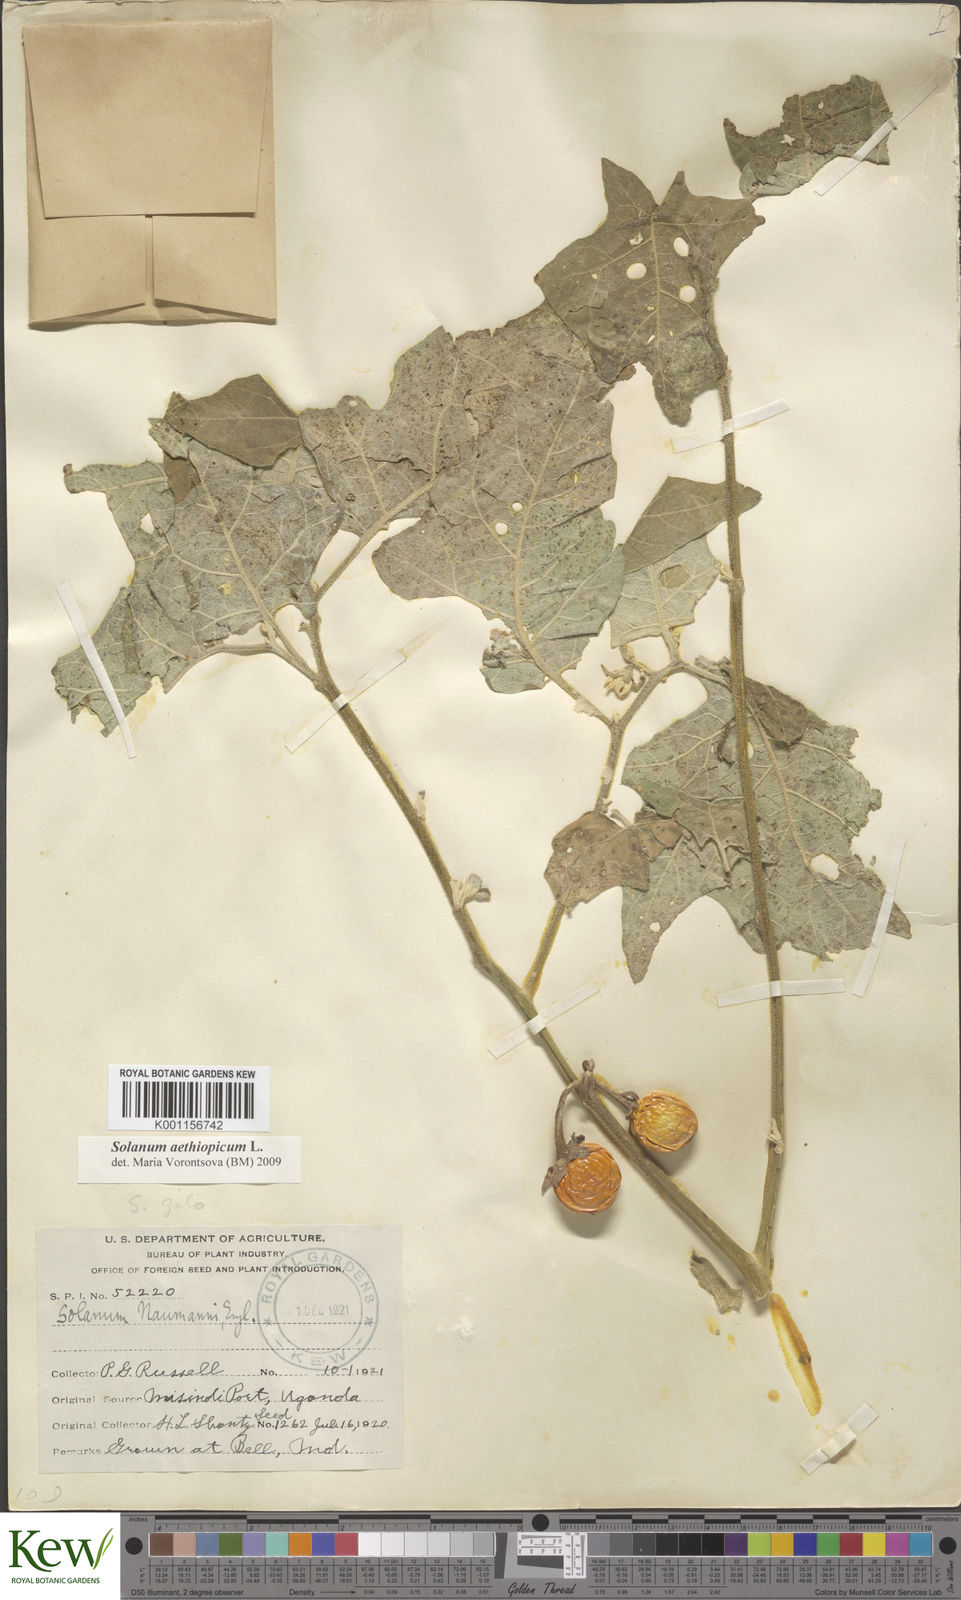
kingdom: Plantae
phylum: Tracheophyta
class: Magnoliopsida
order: Solanales
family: Solanaceae
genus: Solanum
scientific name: Solanum aethiopicum
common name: Gilo
